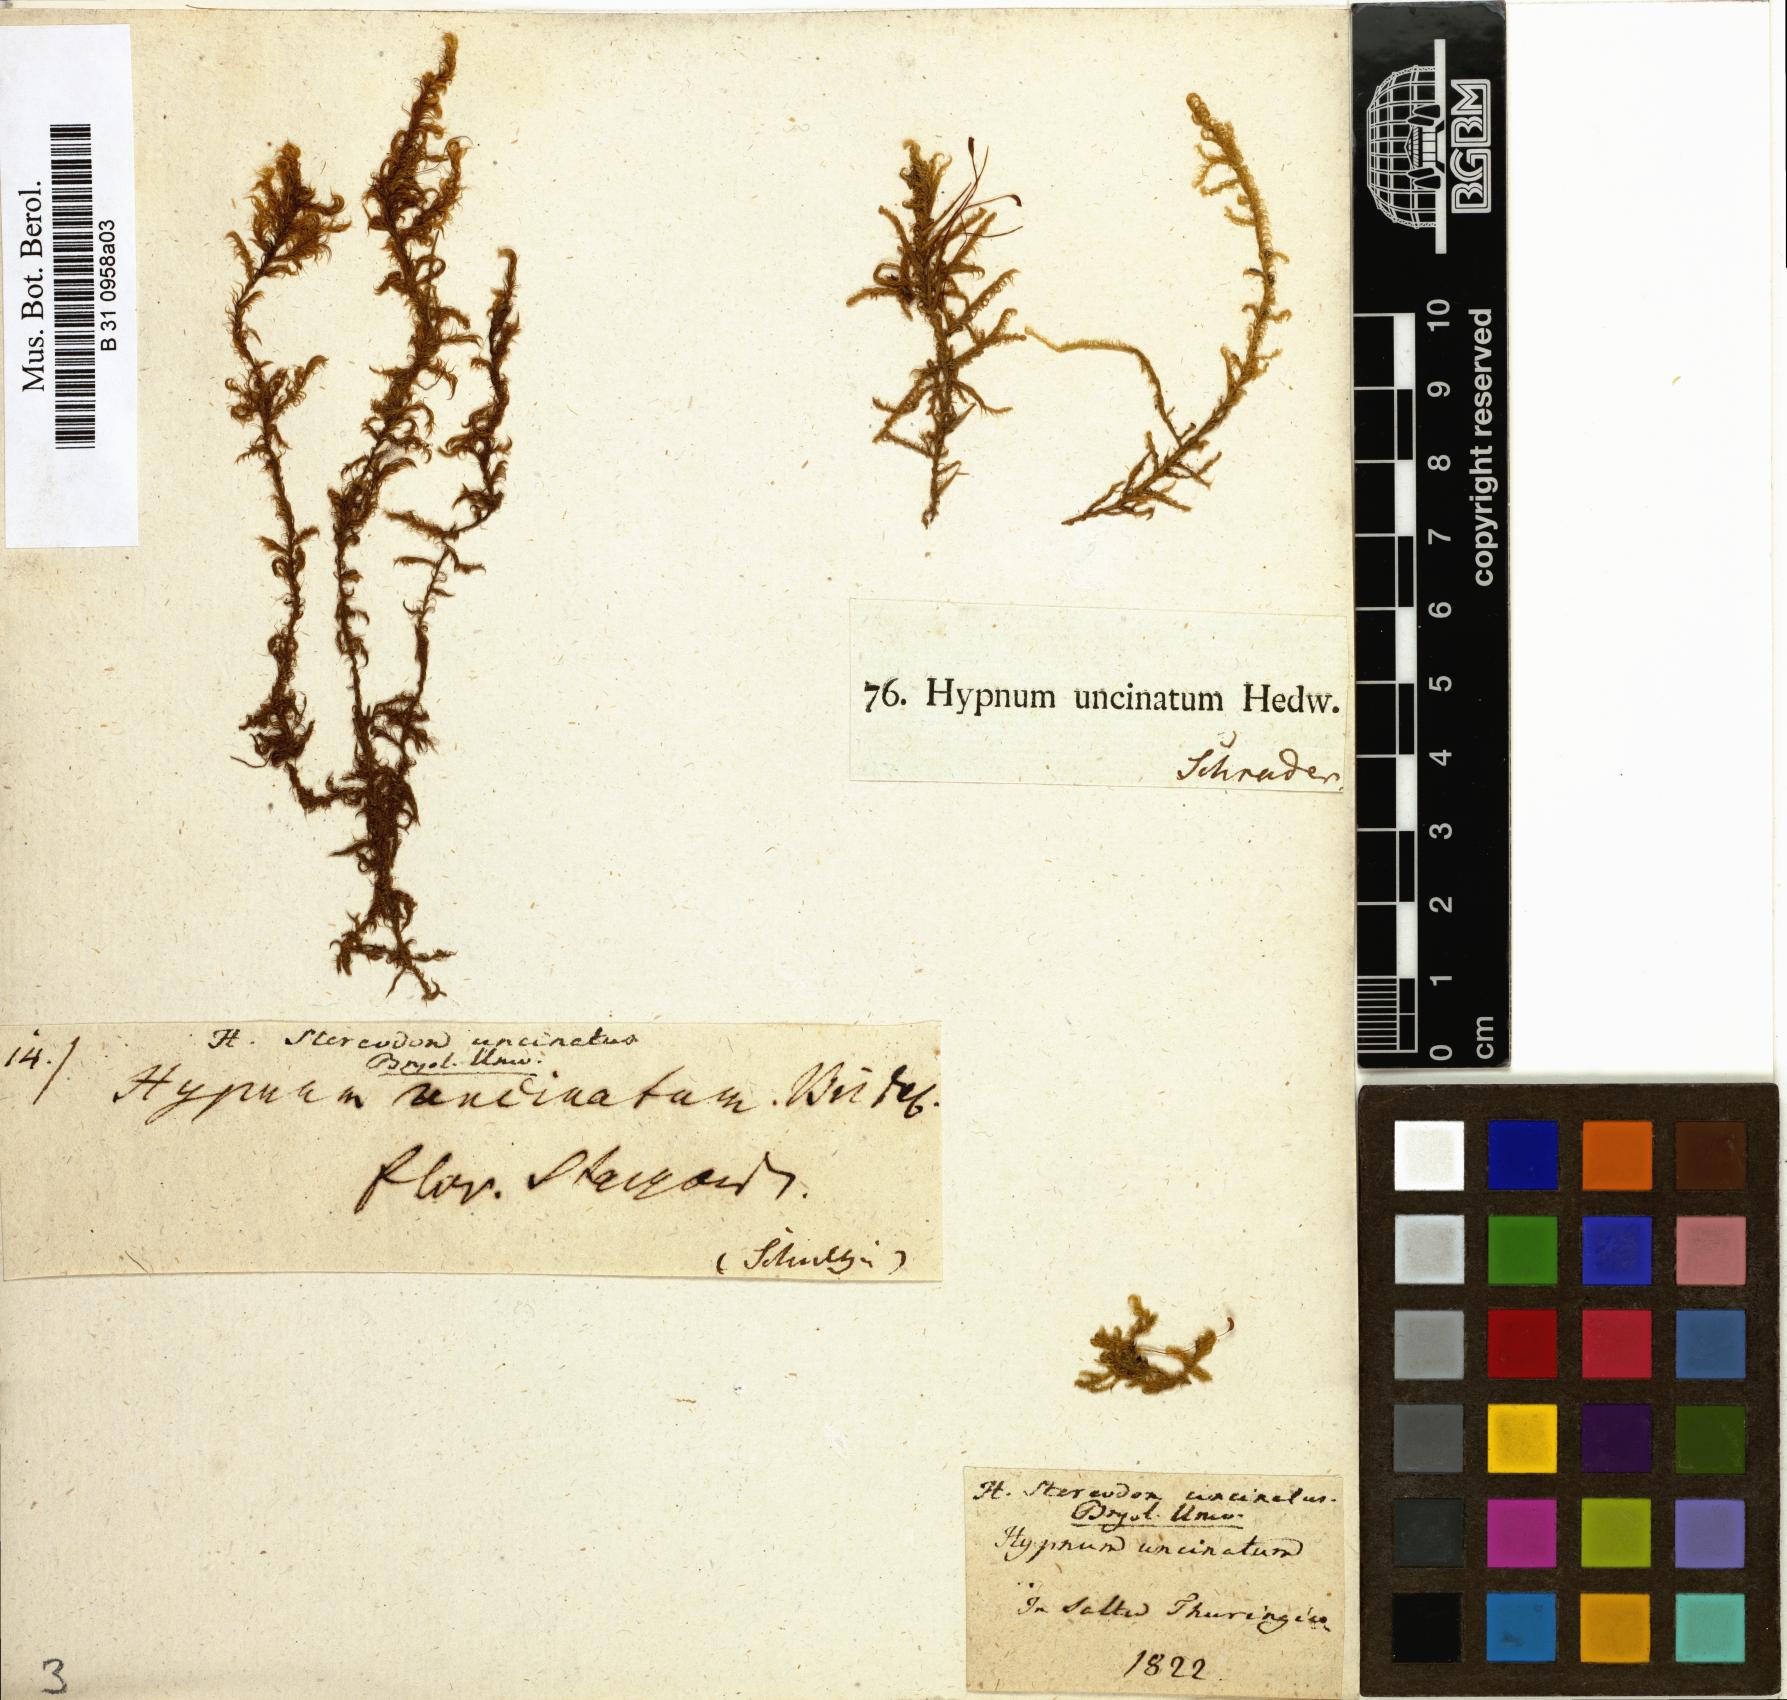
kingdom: Plantae
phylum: Bryophyta
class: Bryopsida
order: Hypnales
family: Scorpidiaceae
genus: Sanionia
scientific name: Sanionia uncinata
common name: Sickle moss
